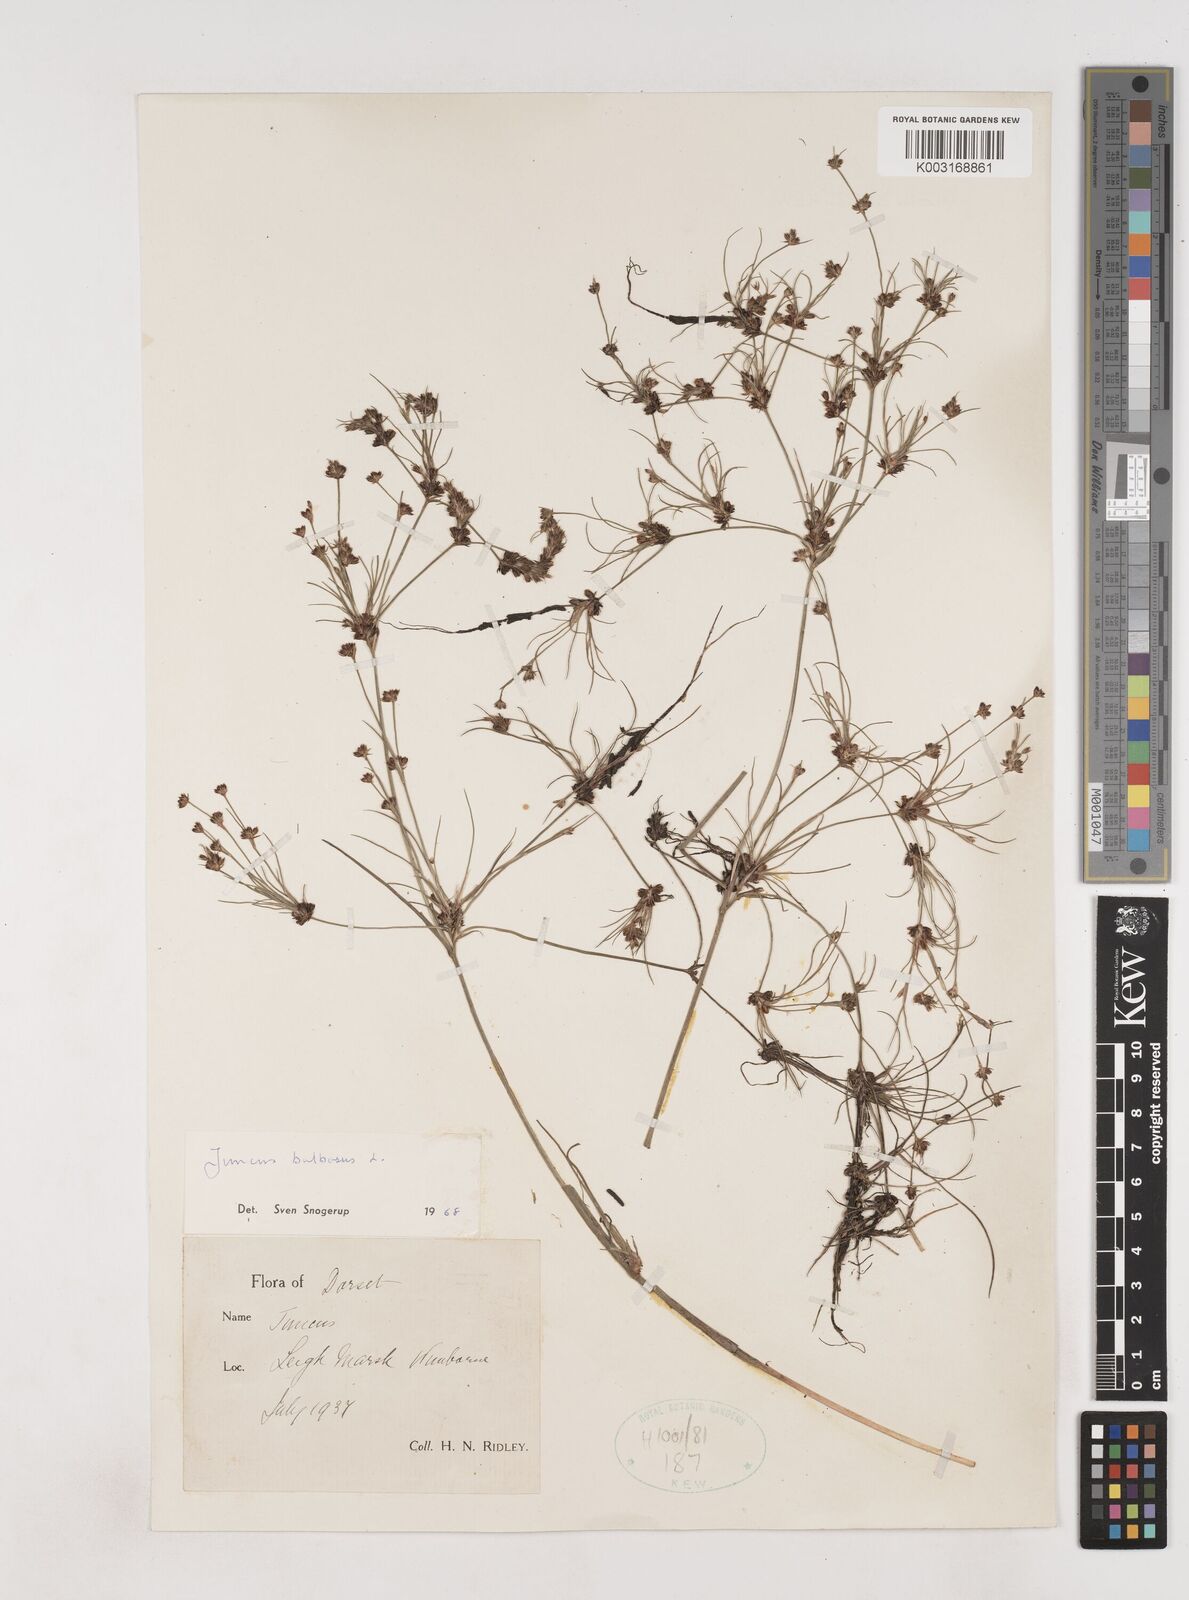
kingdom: Plantae
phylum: Tracheophyta
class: Liliopsida
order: Poales
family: Juncaceae
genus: Juncus
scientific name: Juncus bulbosus
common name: Bulbous rush
